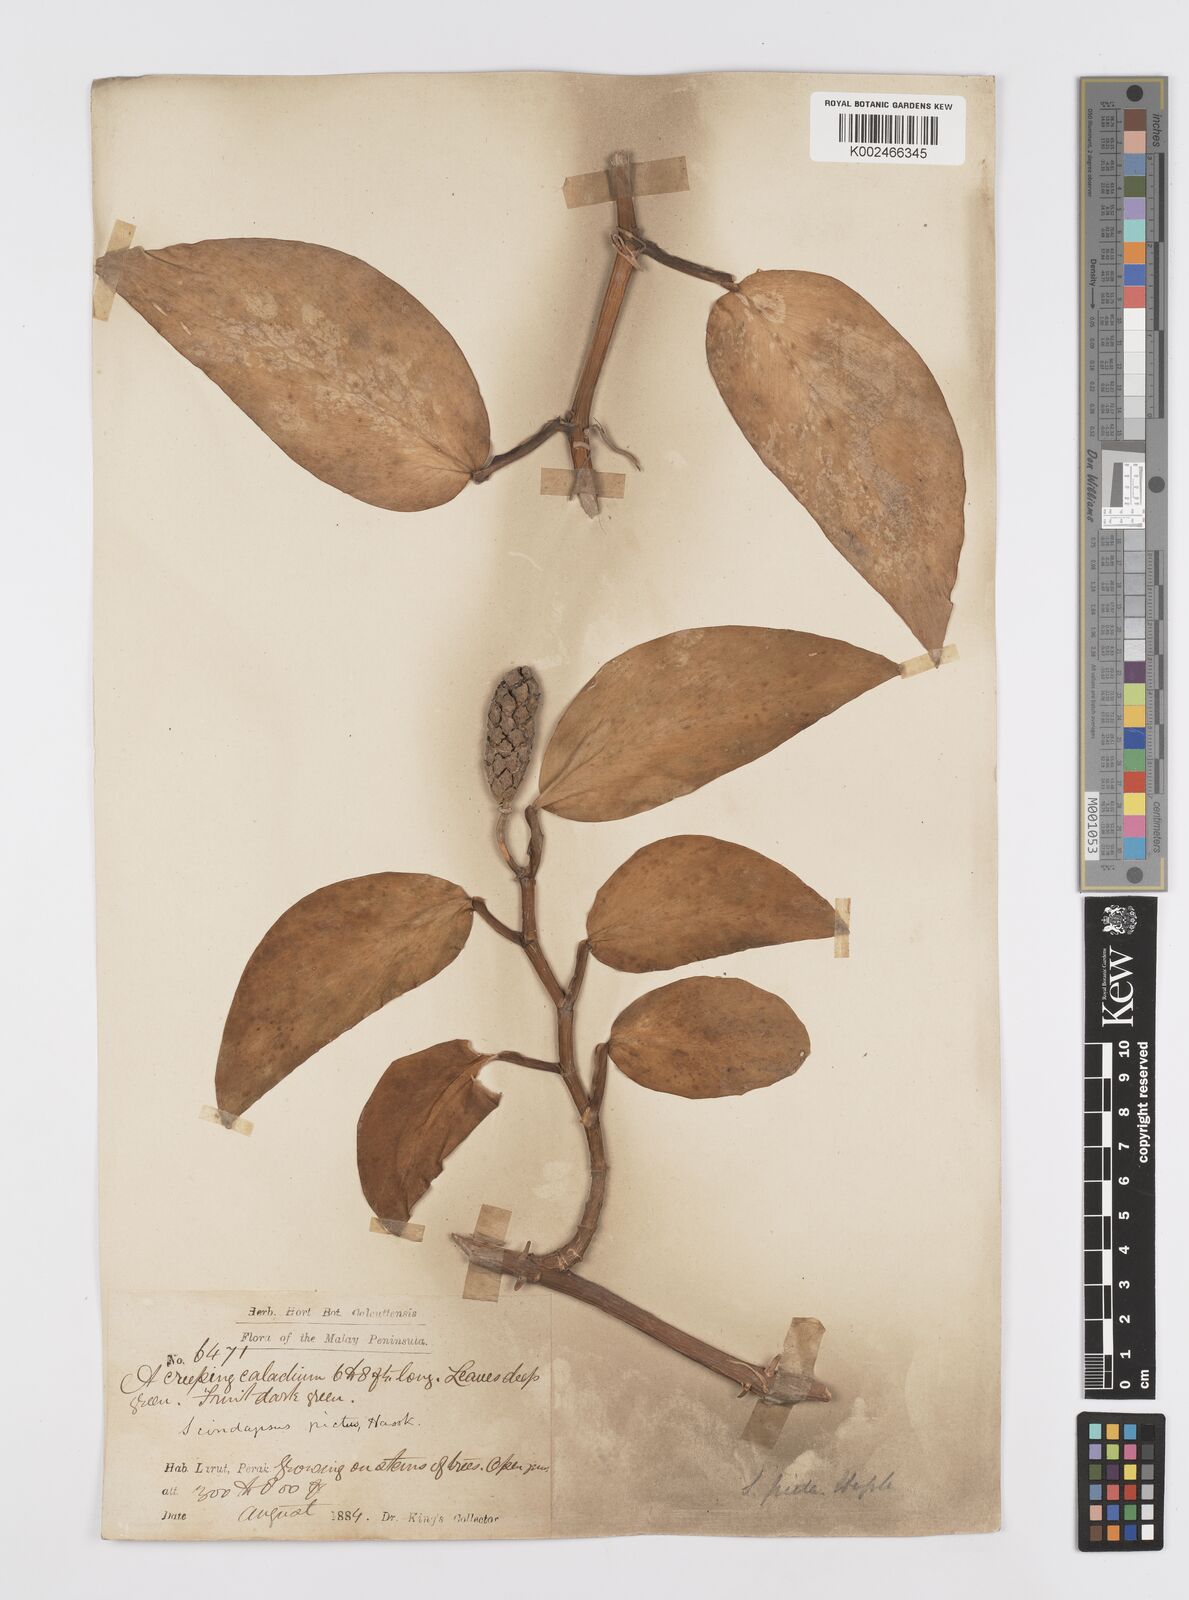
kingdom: Plantae
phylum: Tracheophyta
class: Liliopsida
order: Alismatales
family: Araceae
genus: Scindapsus
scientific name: Scindapsus pictus
